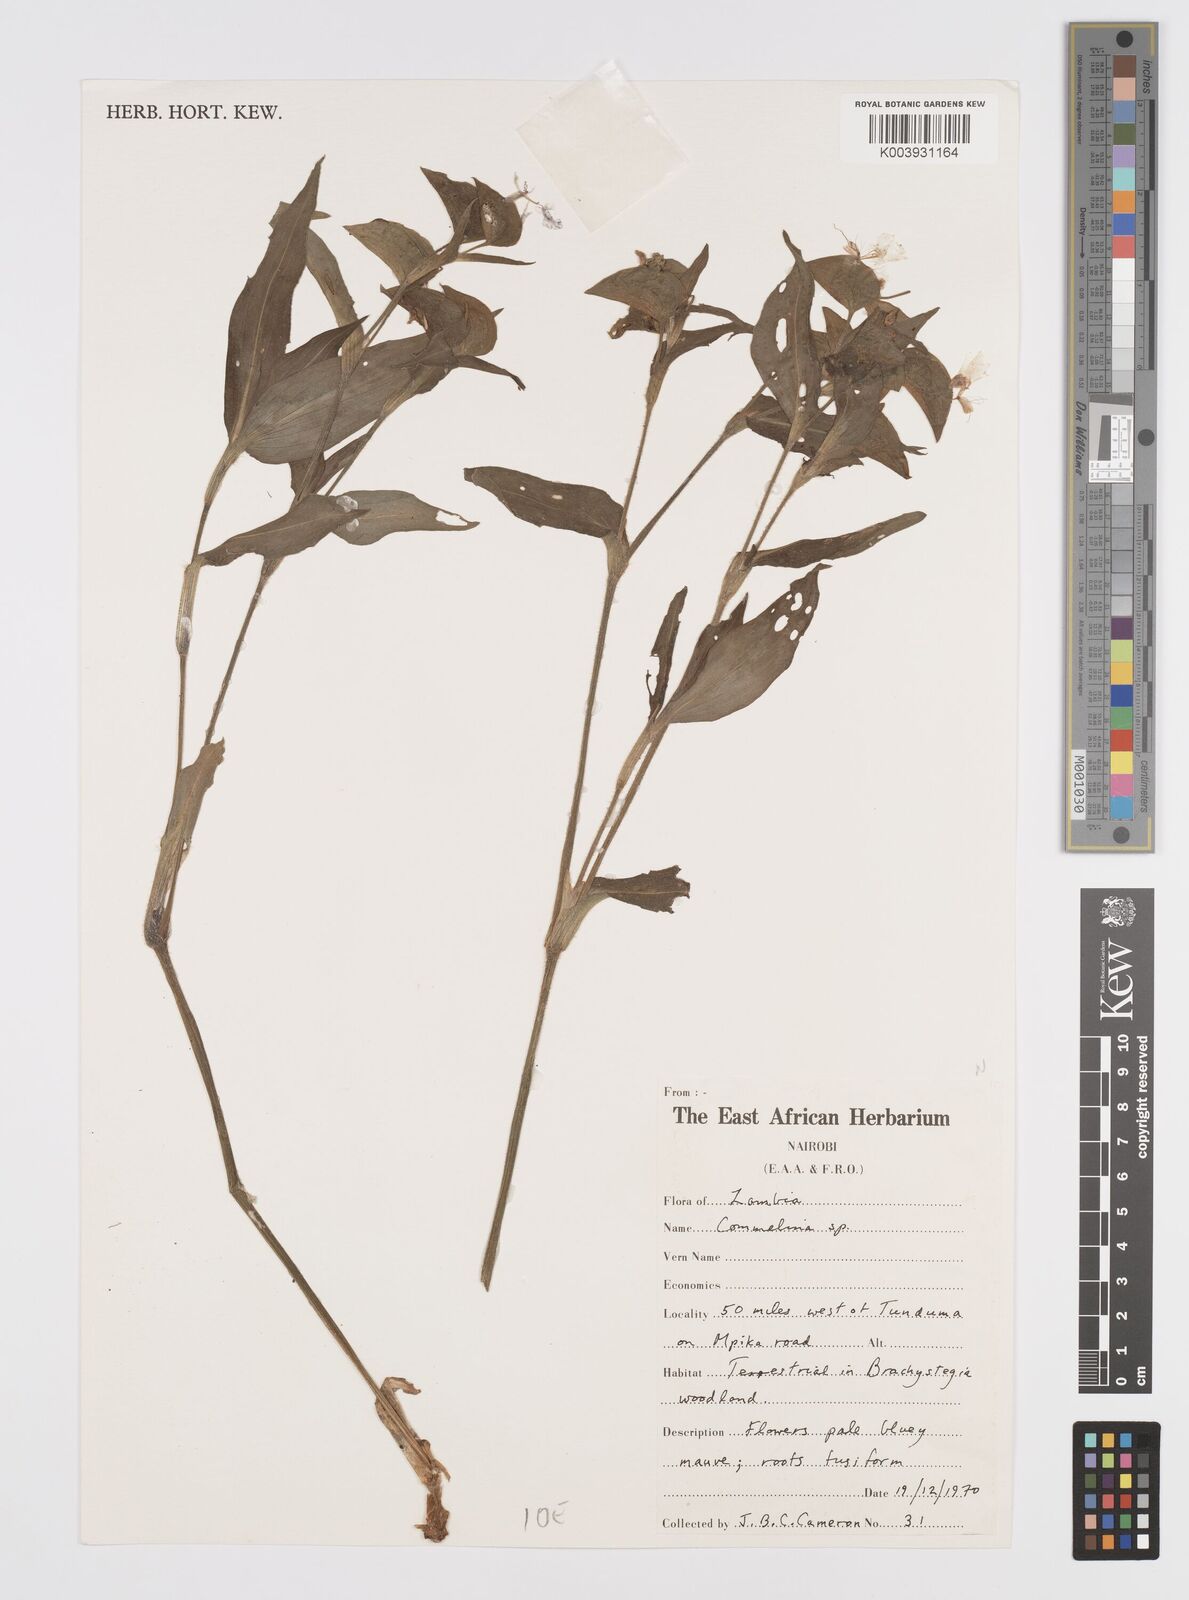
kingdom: Plantae
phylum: Tracheophyta
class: Liliopsida
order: Commelinales
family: Commelinaceae
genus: Commelina
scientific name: Commelina eckloniana
